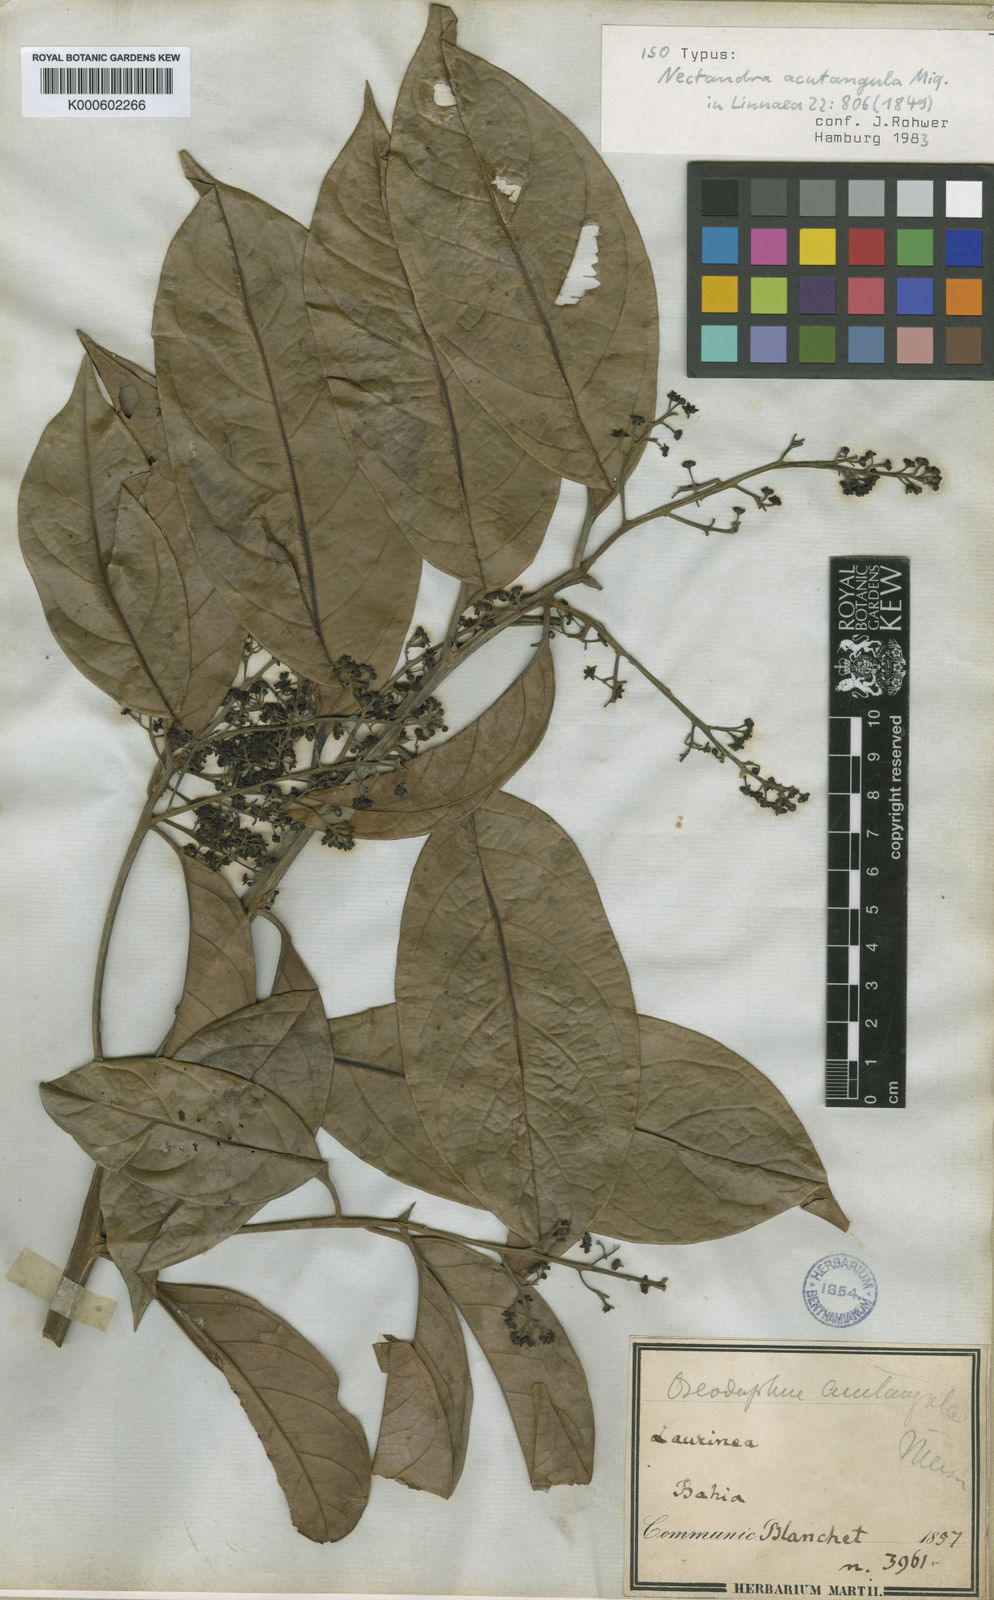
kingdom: Plantae
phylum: Tracheophyta
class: Magnoliopsida
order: Laurales
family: Lauraceae
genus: Ocotea
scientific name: Ocotea acutangula
